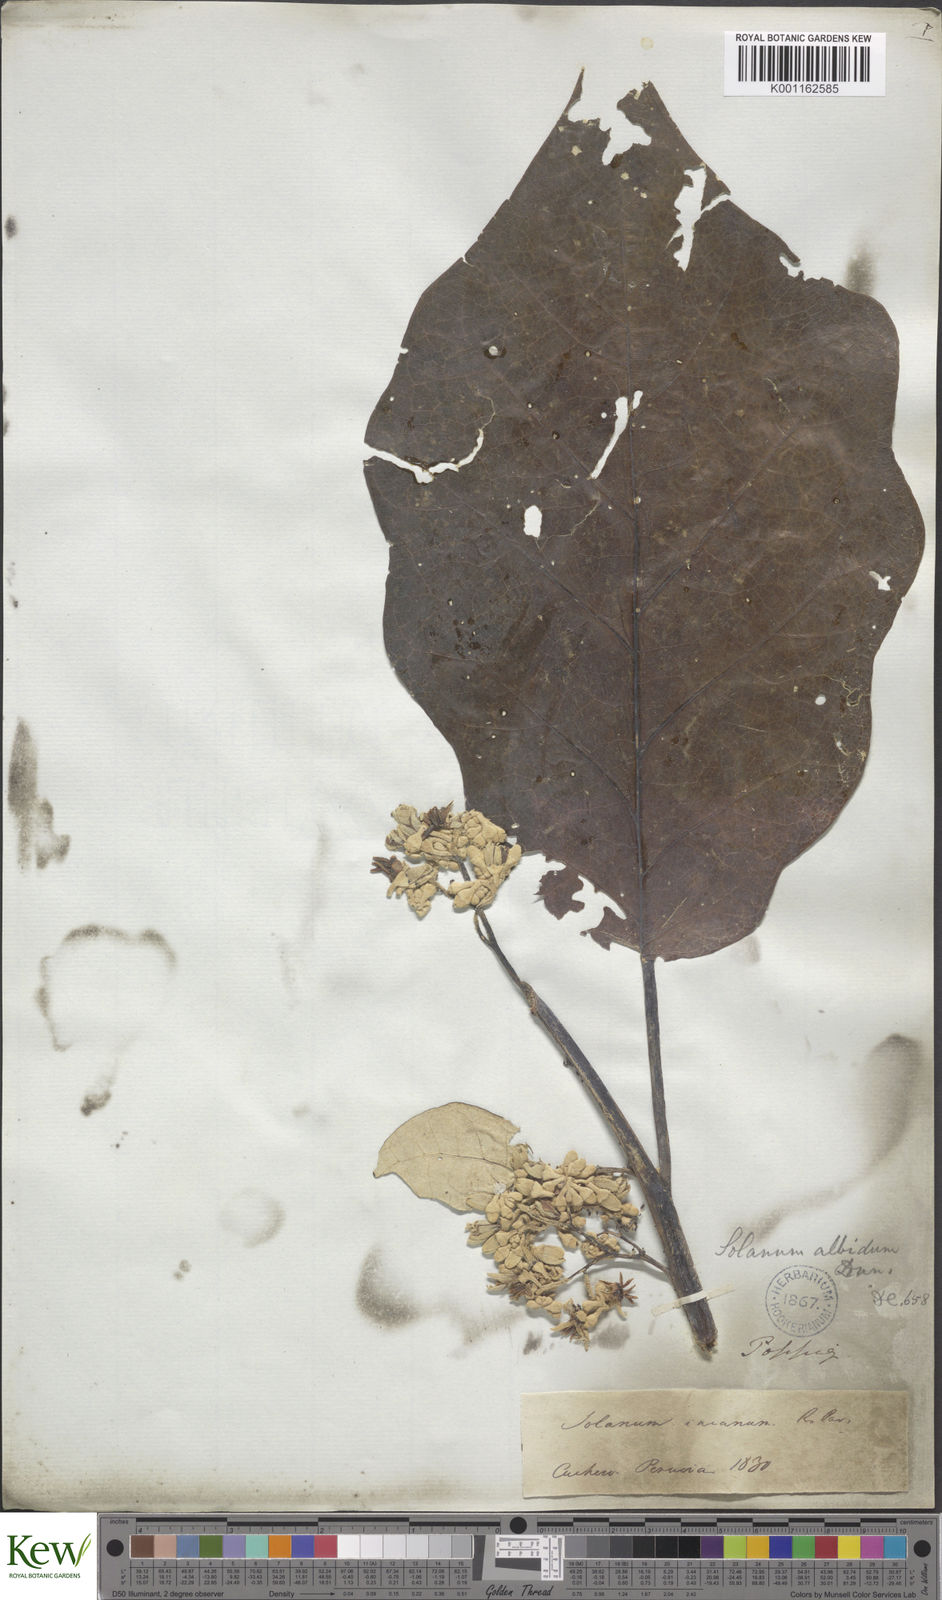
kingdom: Plantae
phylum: Tracheophyta
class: Magnoliopsida
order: Solanales
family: Solanaceae
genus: Solanum
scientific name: Solanum albidum
